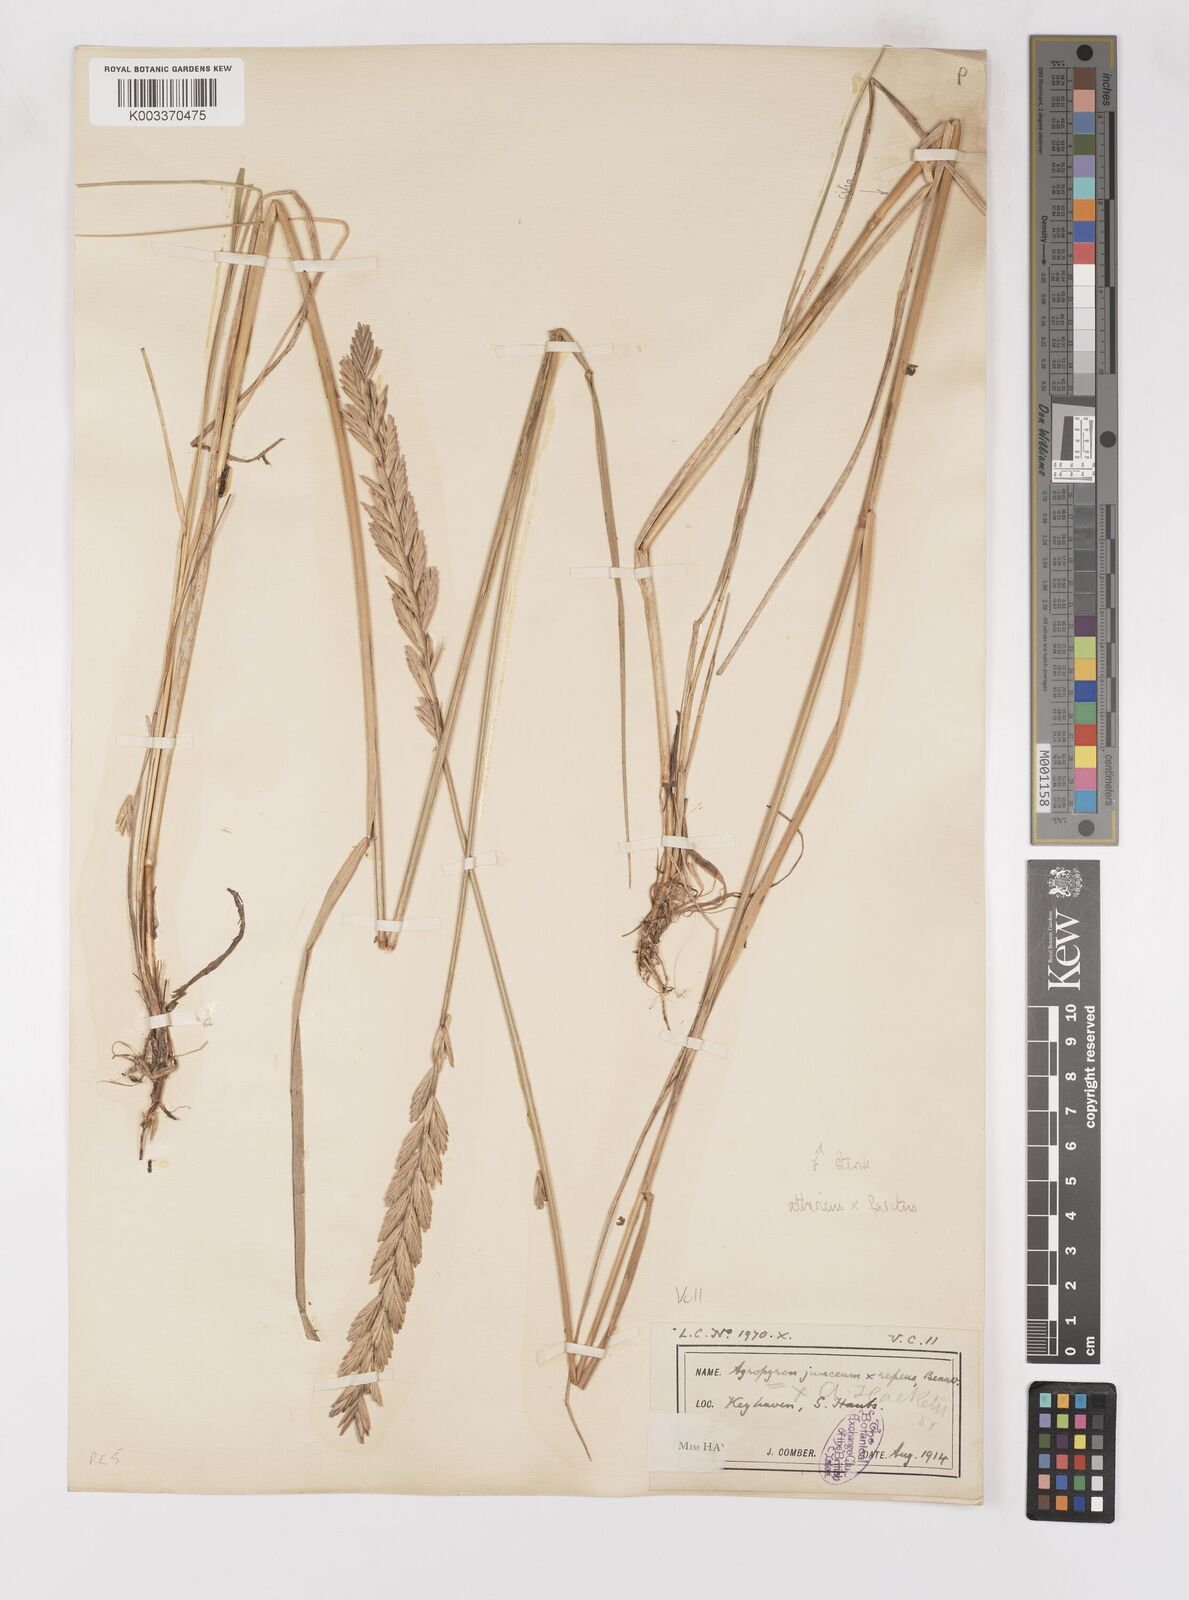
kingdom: Plantae
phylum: Tracheophyta
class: Liliopsida
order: Poales
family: Poaceae
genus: Thinoelymus
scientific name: Thinoelymus obtusiusculus
